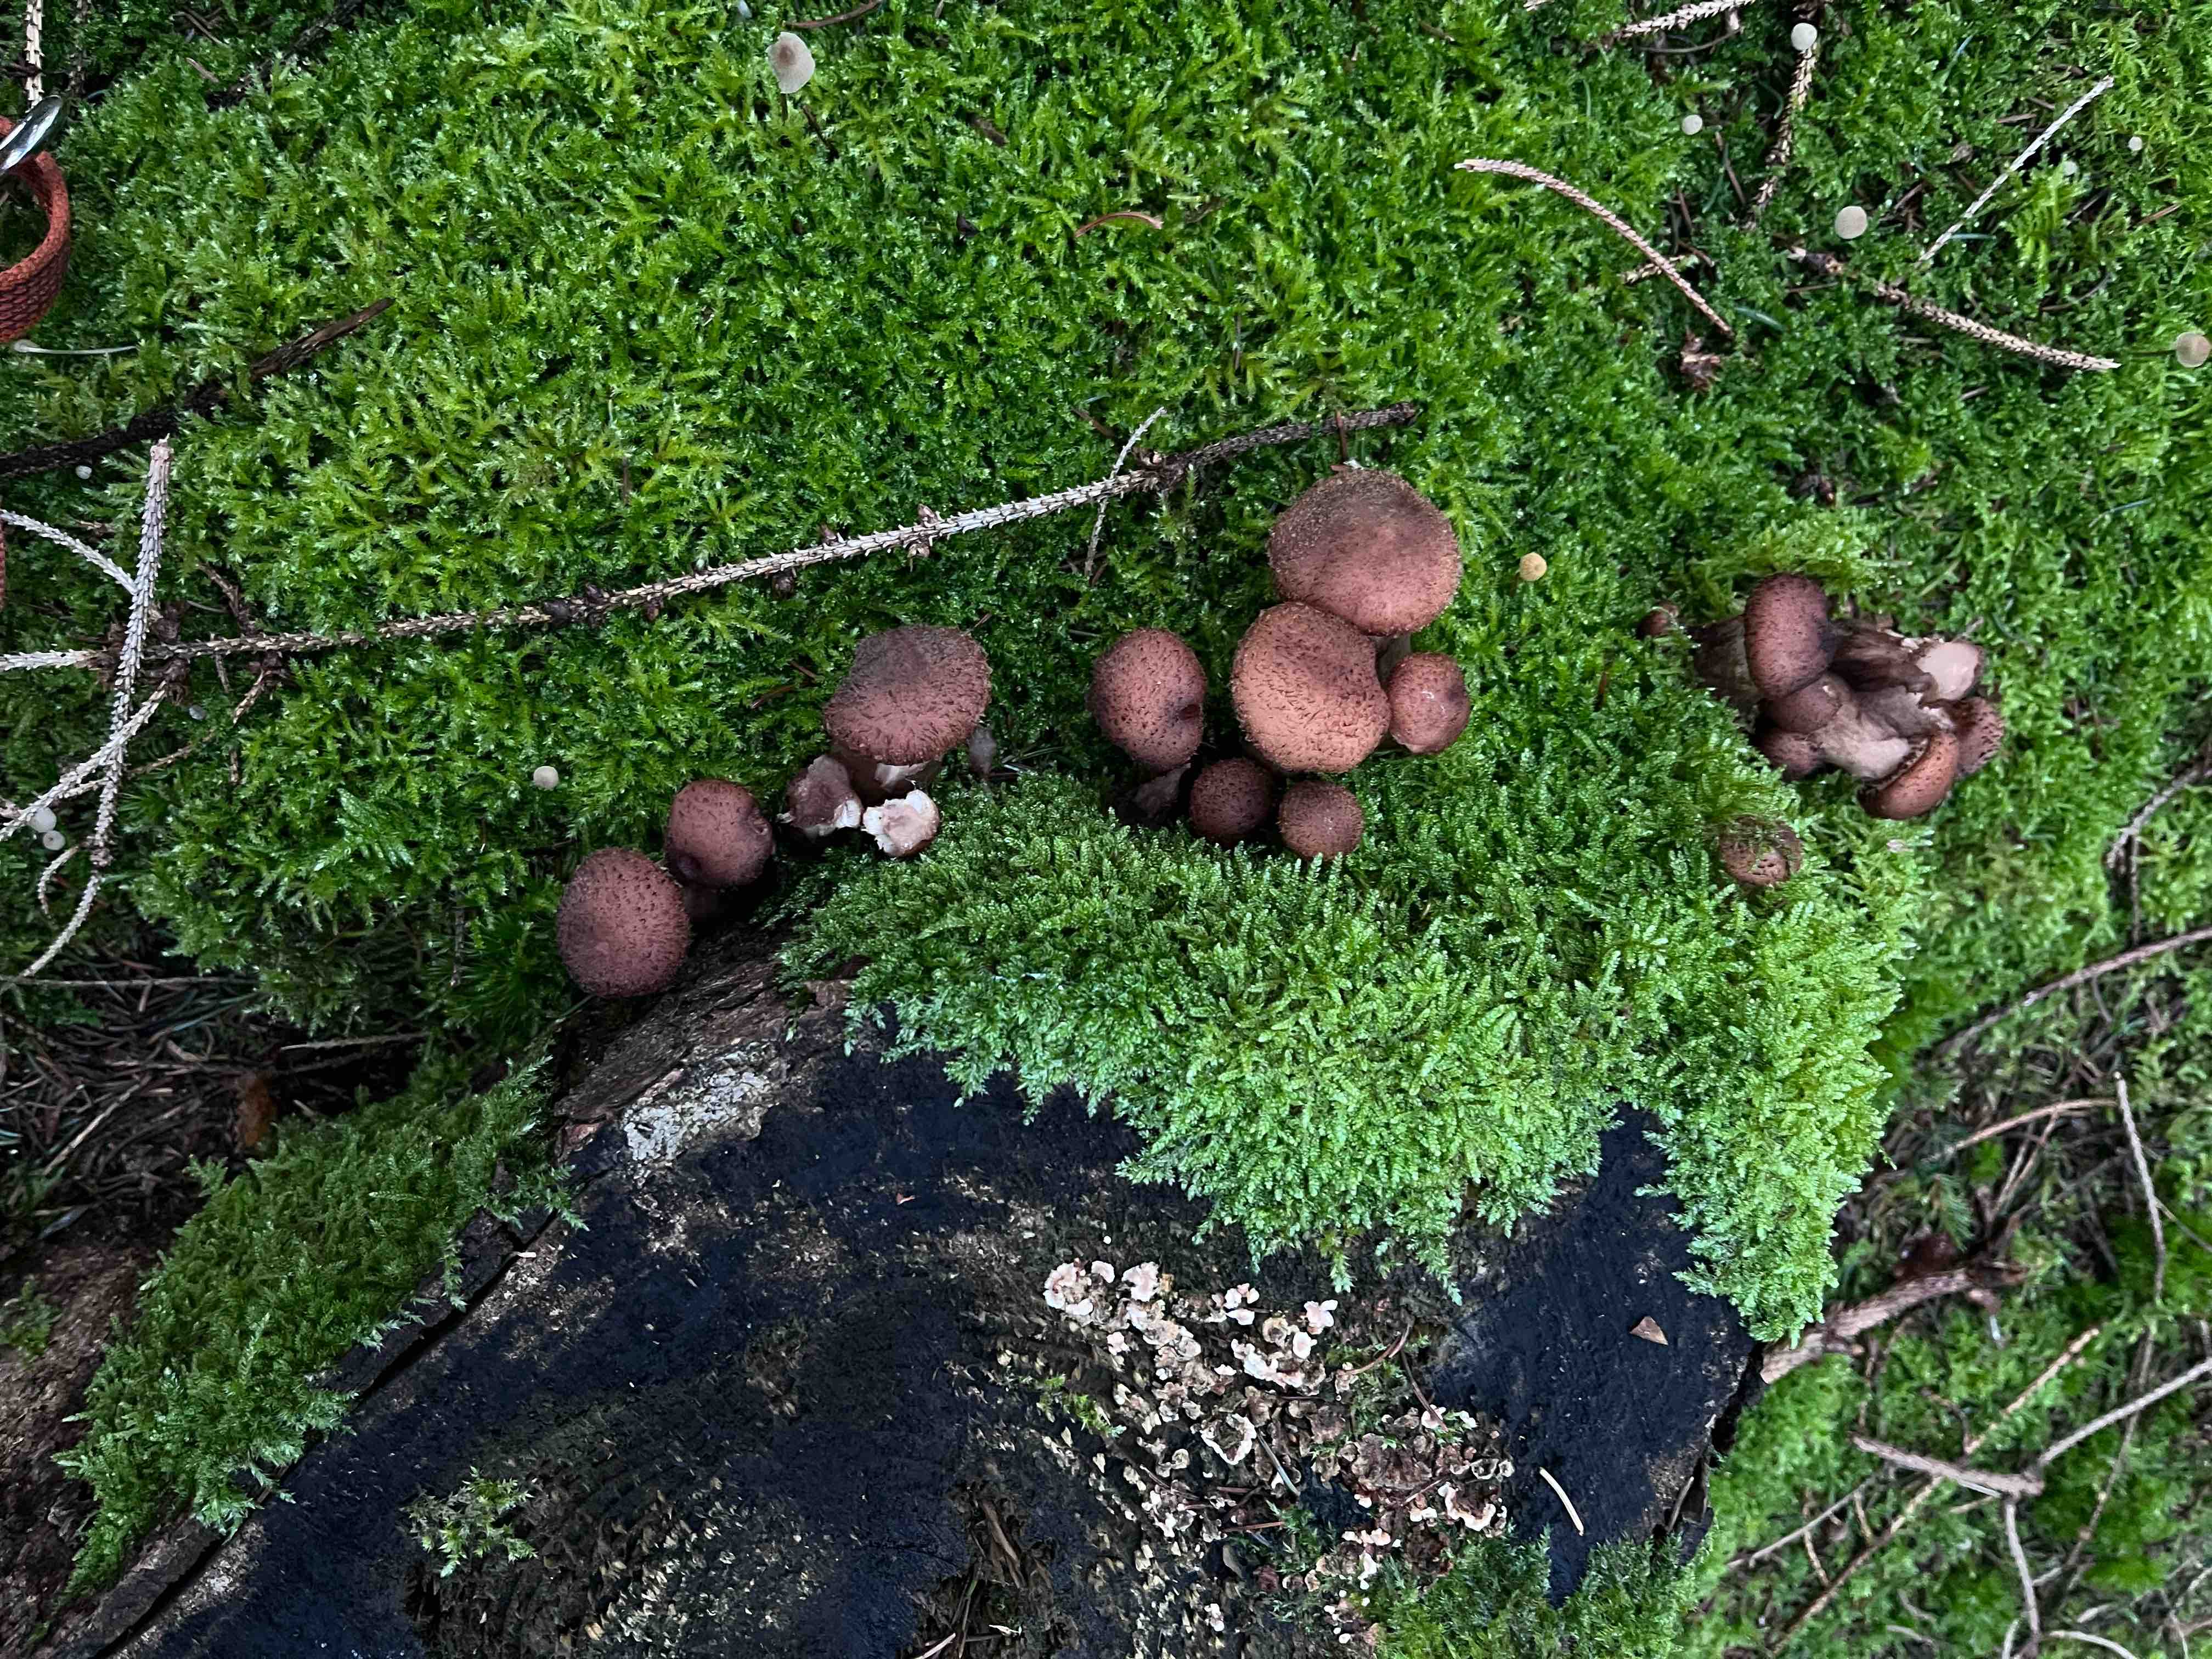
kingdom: Fungi
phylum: Basidiomycota
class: Agaricomycetes
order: Agaricales
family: Physalacriaceae
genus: Armillaria
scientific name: Armillaria ostoyae
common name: mørk honningsvamp
